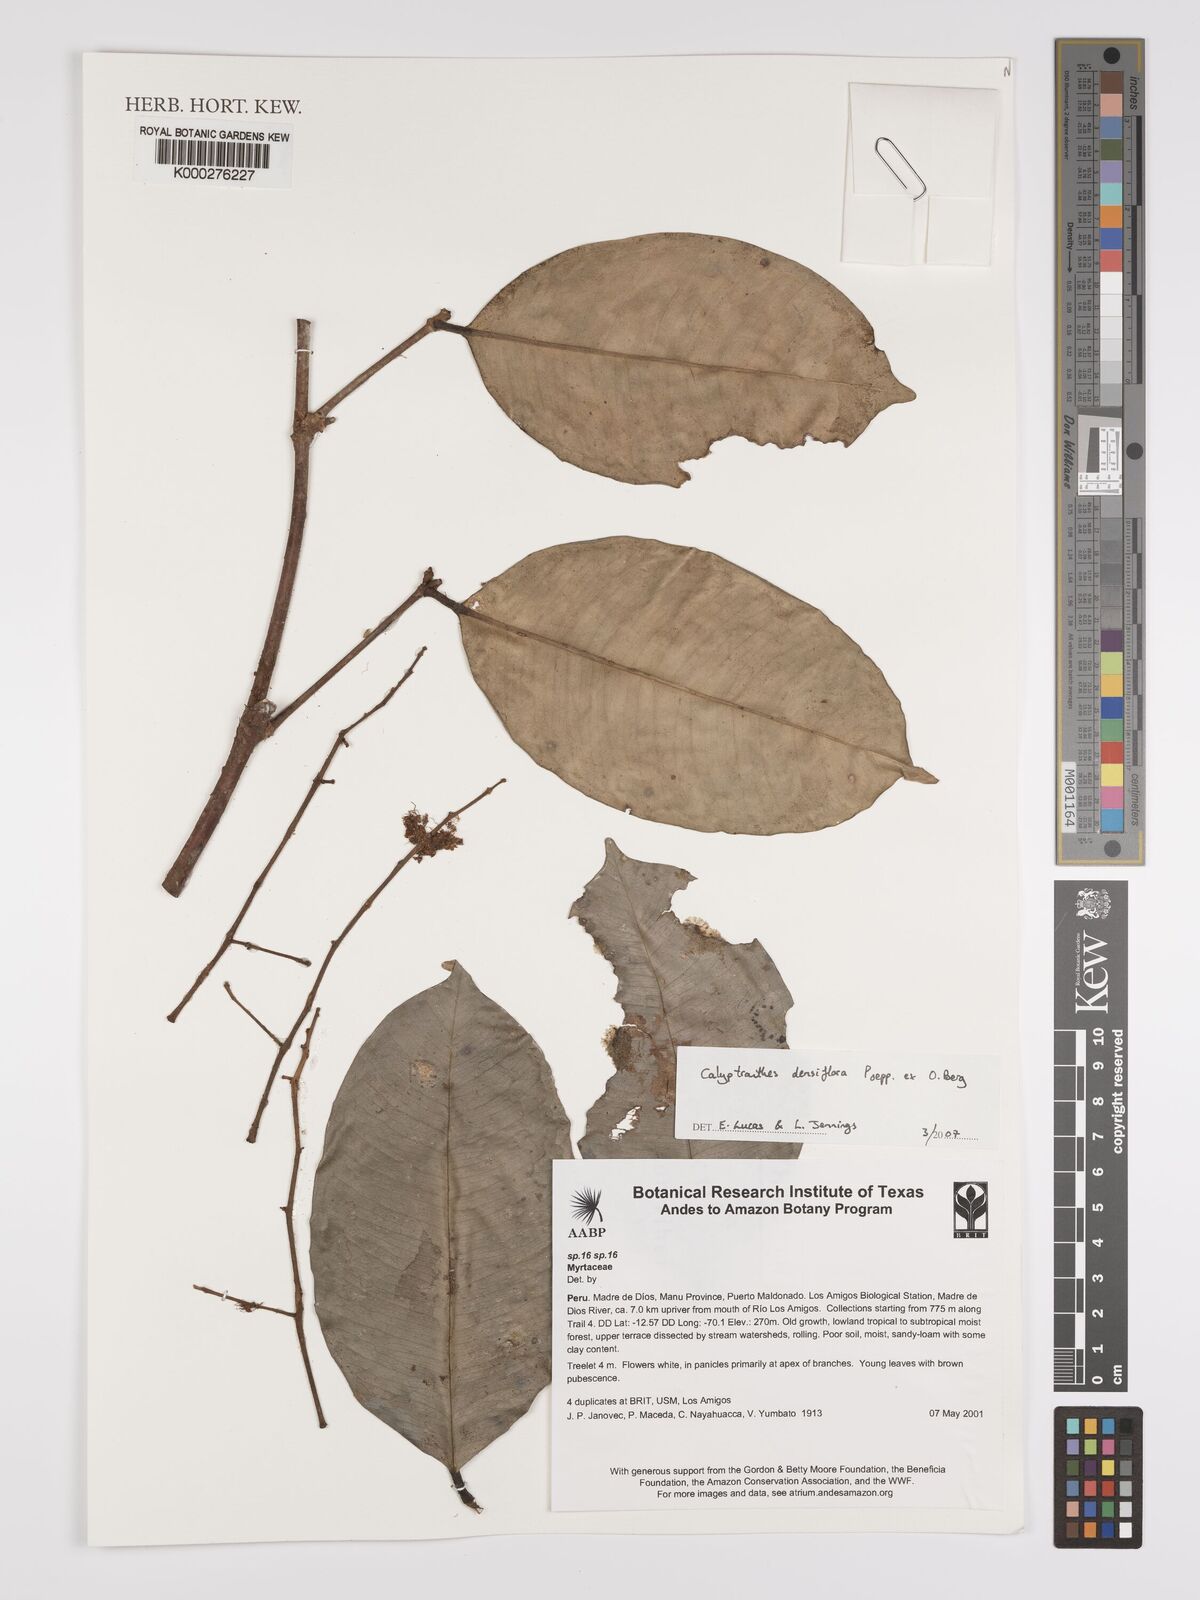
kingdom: Plantae
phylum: Tracheophyta
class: Magnoliopsida
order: Myrtales
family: Myrtaceae
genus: Myrcia
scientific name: Myrcia densiflora
